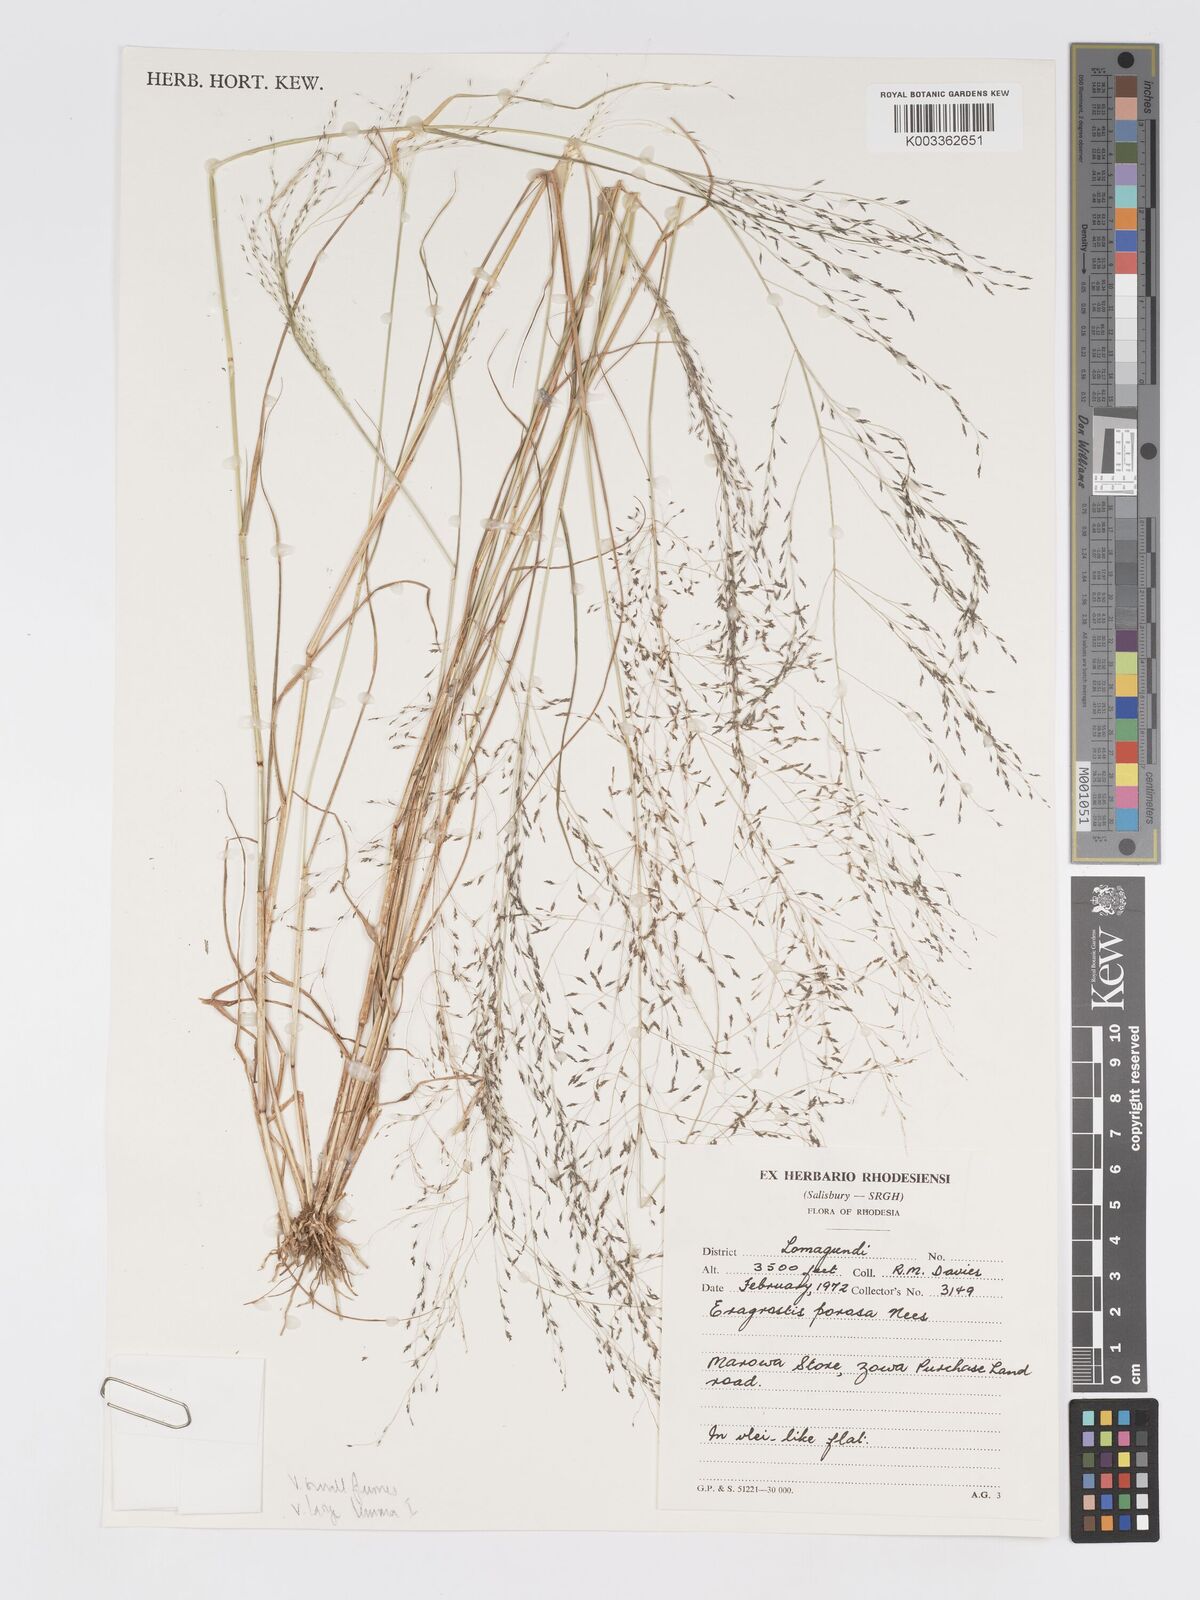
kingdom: Plantae
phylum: Tracheophyta
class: Liliopsida
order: Poales
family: Poaceae
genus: Eragrostis
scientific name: Eragrostis porosa
